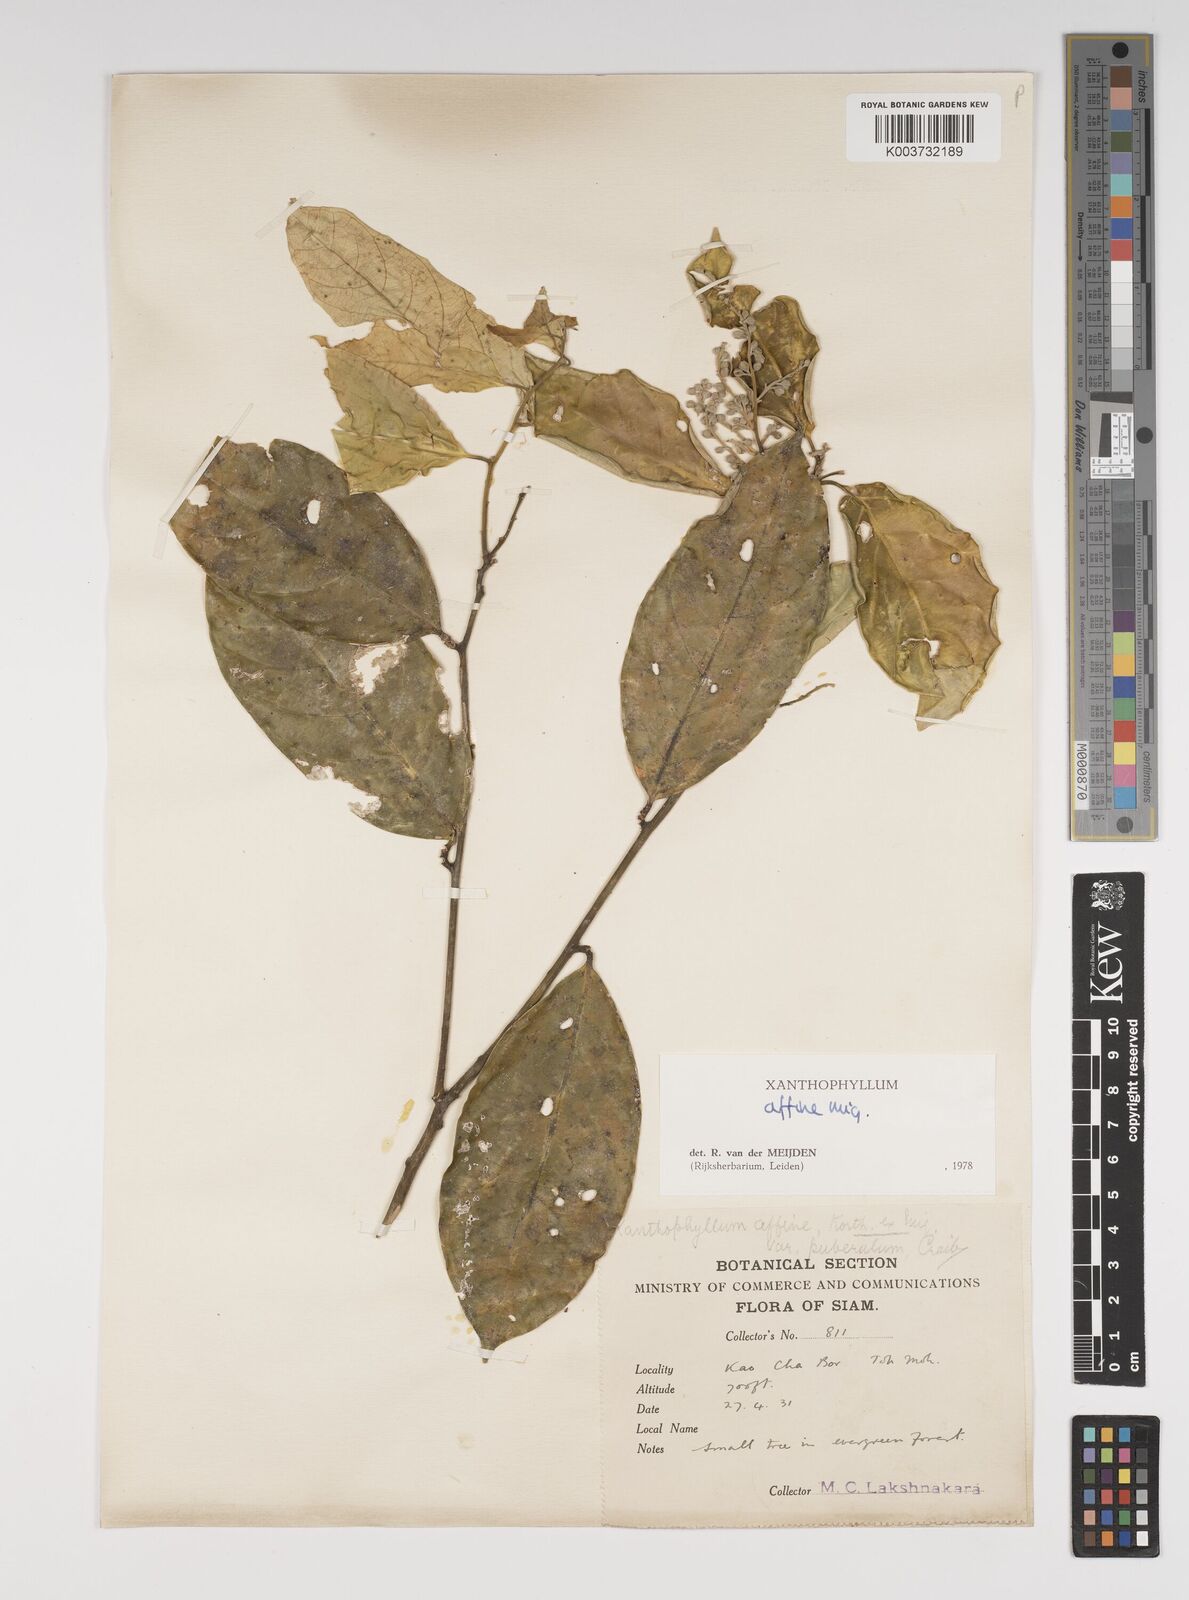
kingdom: Plantae
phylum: Tracheophyta
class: Magnoliopsida
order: Fabales
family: Polygalaceae
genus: Xanthophyllum
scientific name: Xanthophyllum flavescens
